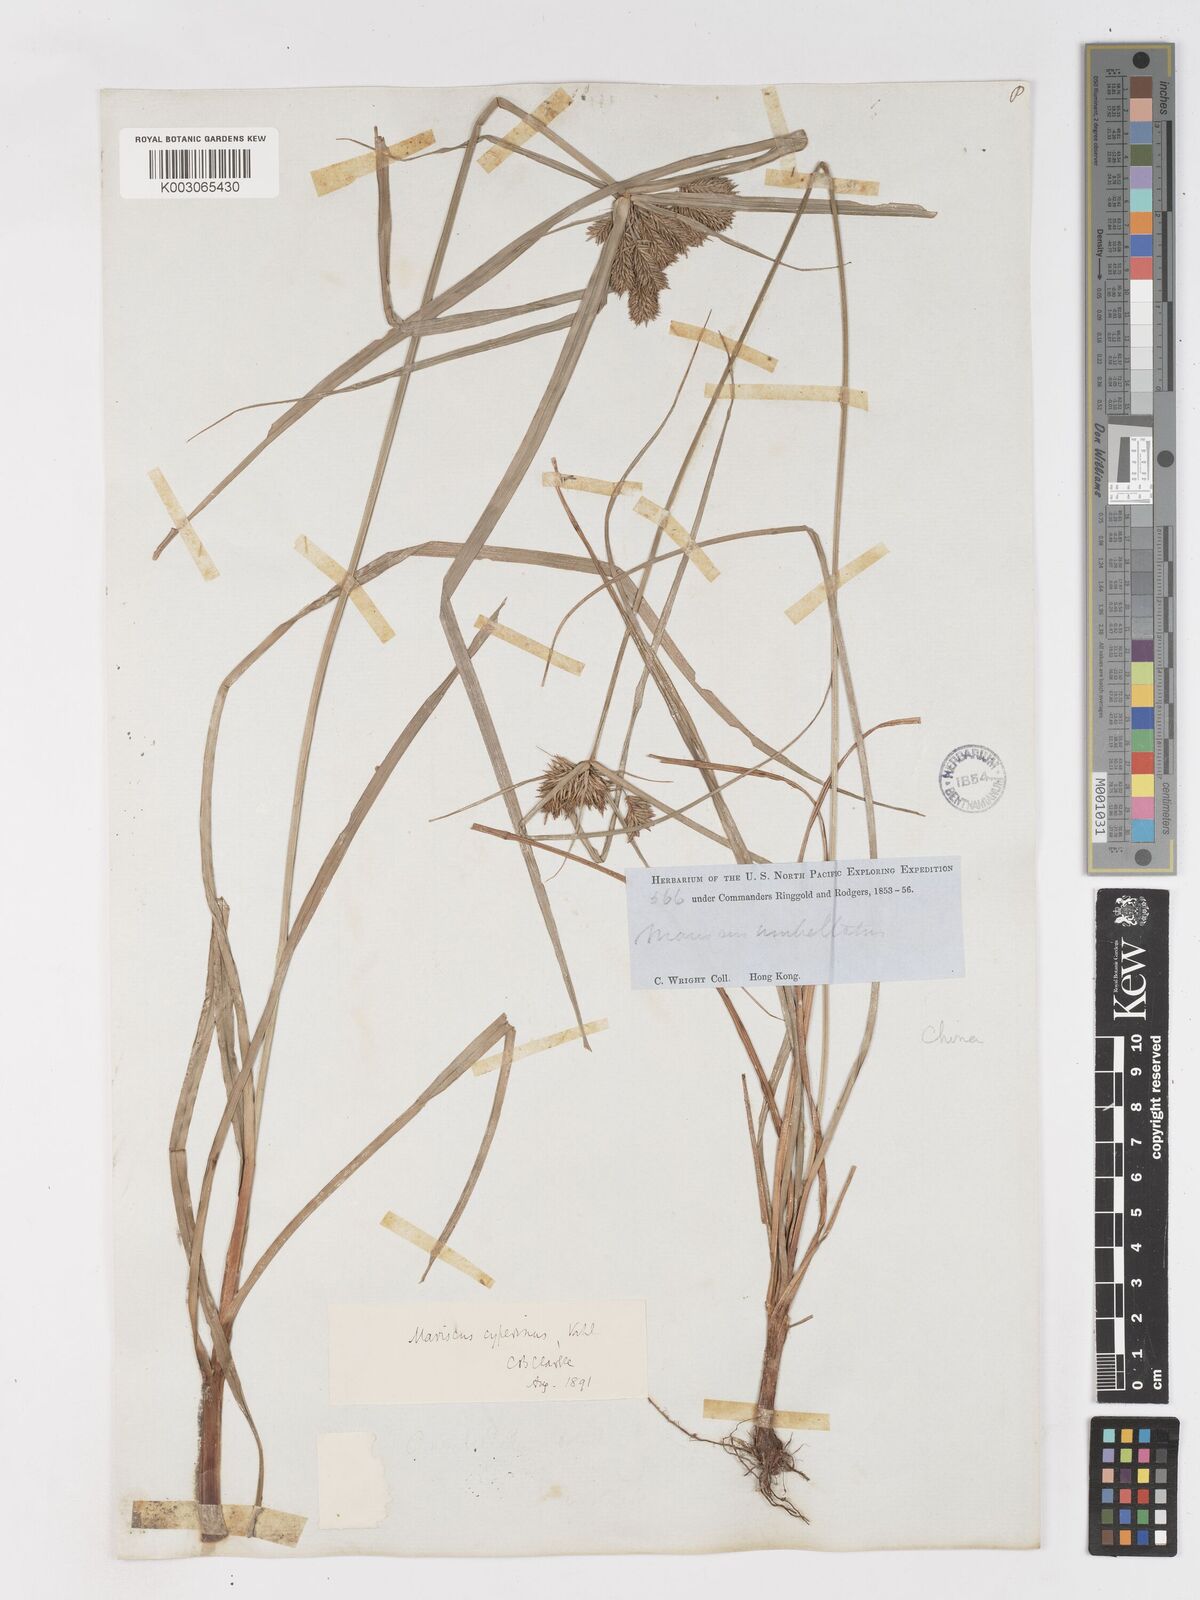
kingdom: Plantae
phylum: Tracheophyta
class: Liliopsida
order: Poales
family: Cyperaceae
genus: Cyperus
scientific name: Cyperus cyperinus
